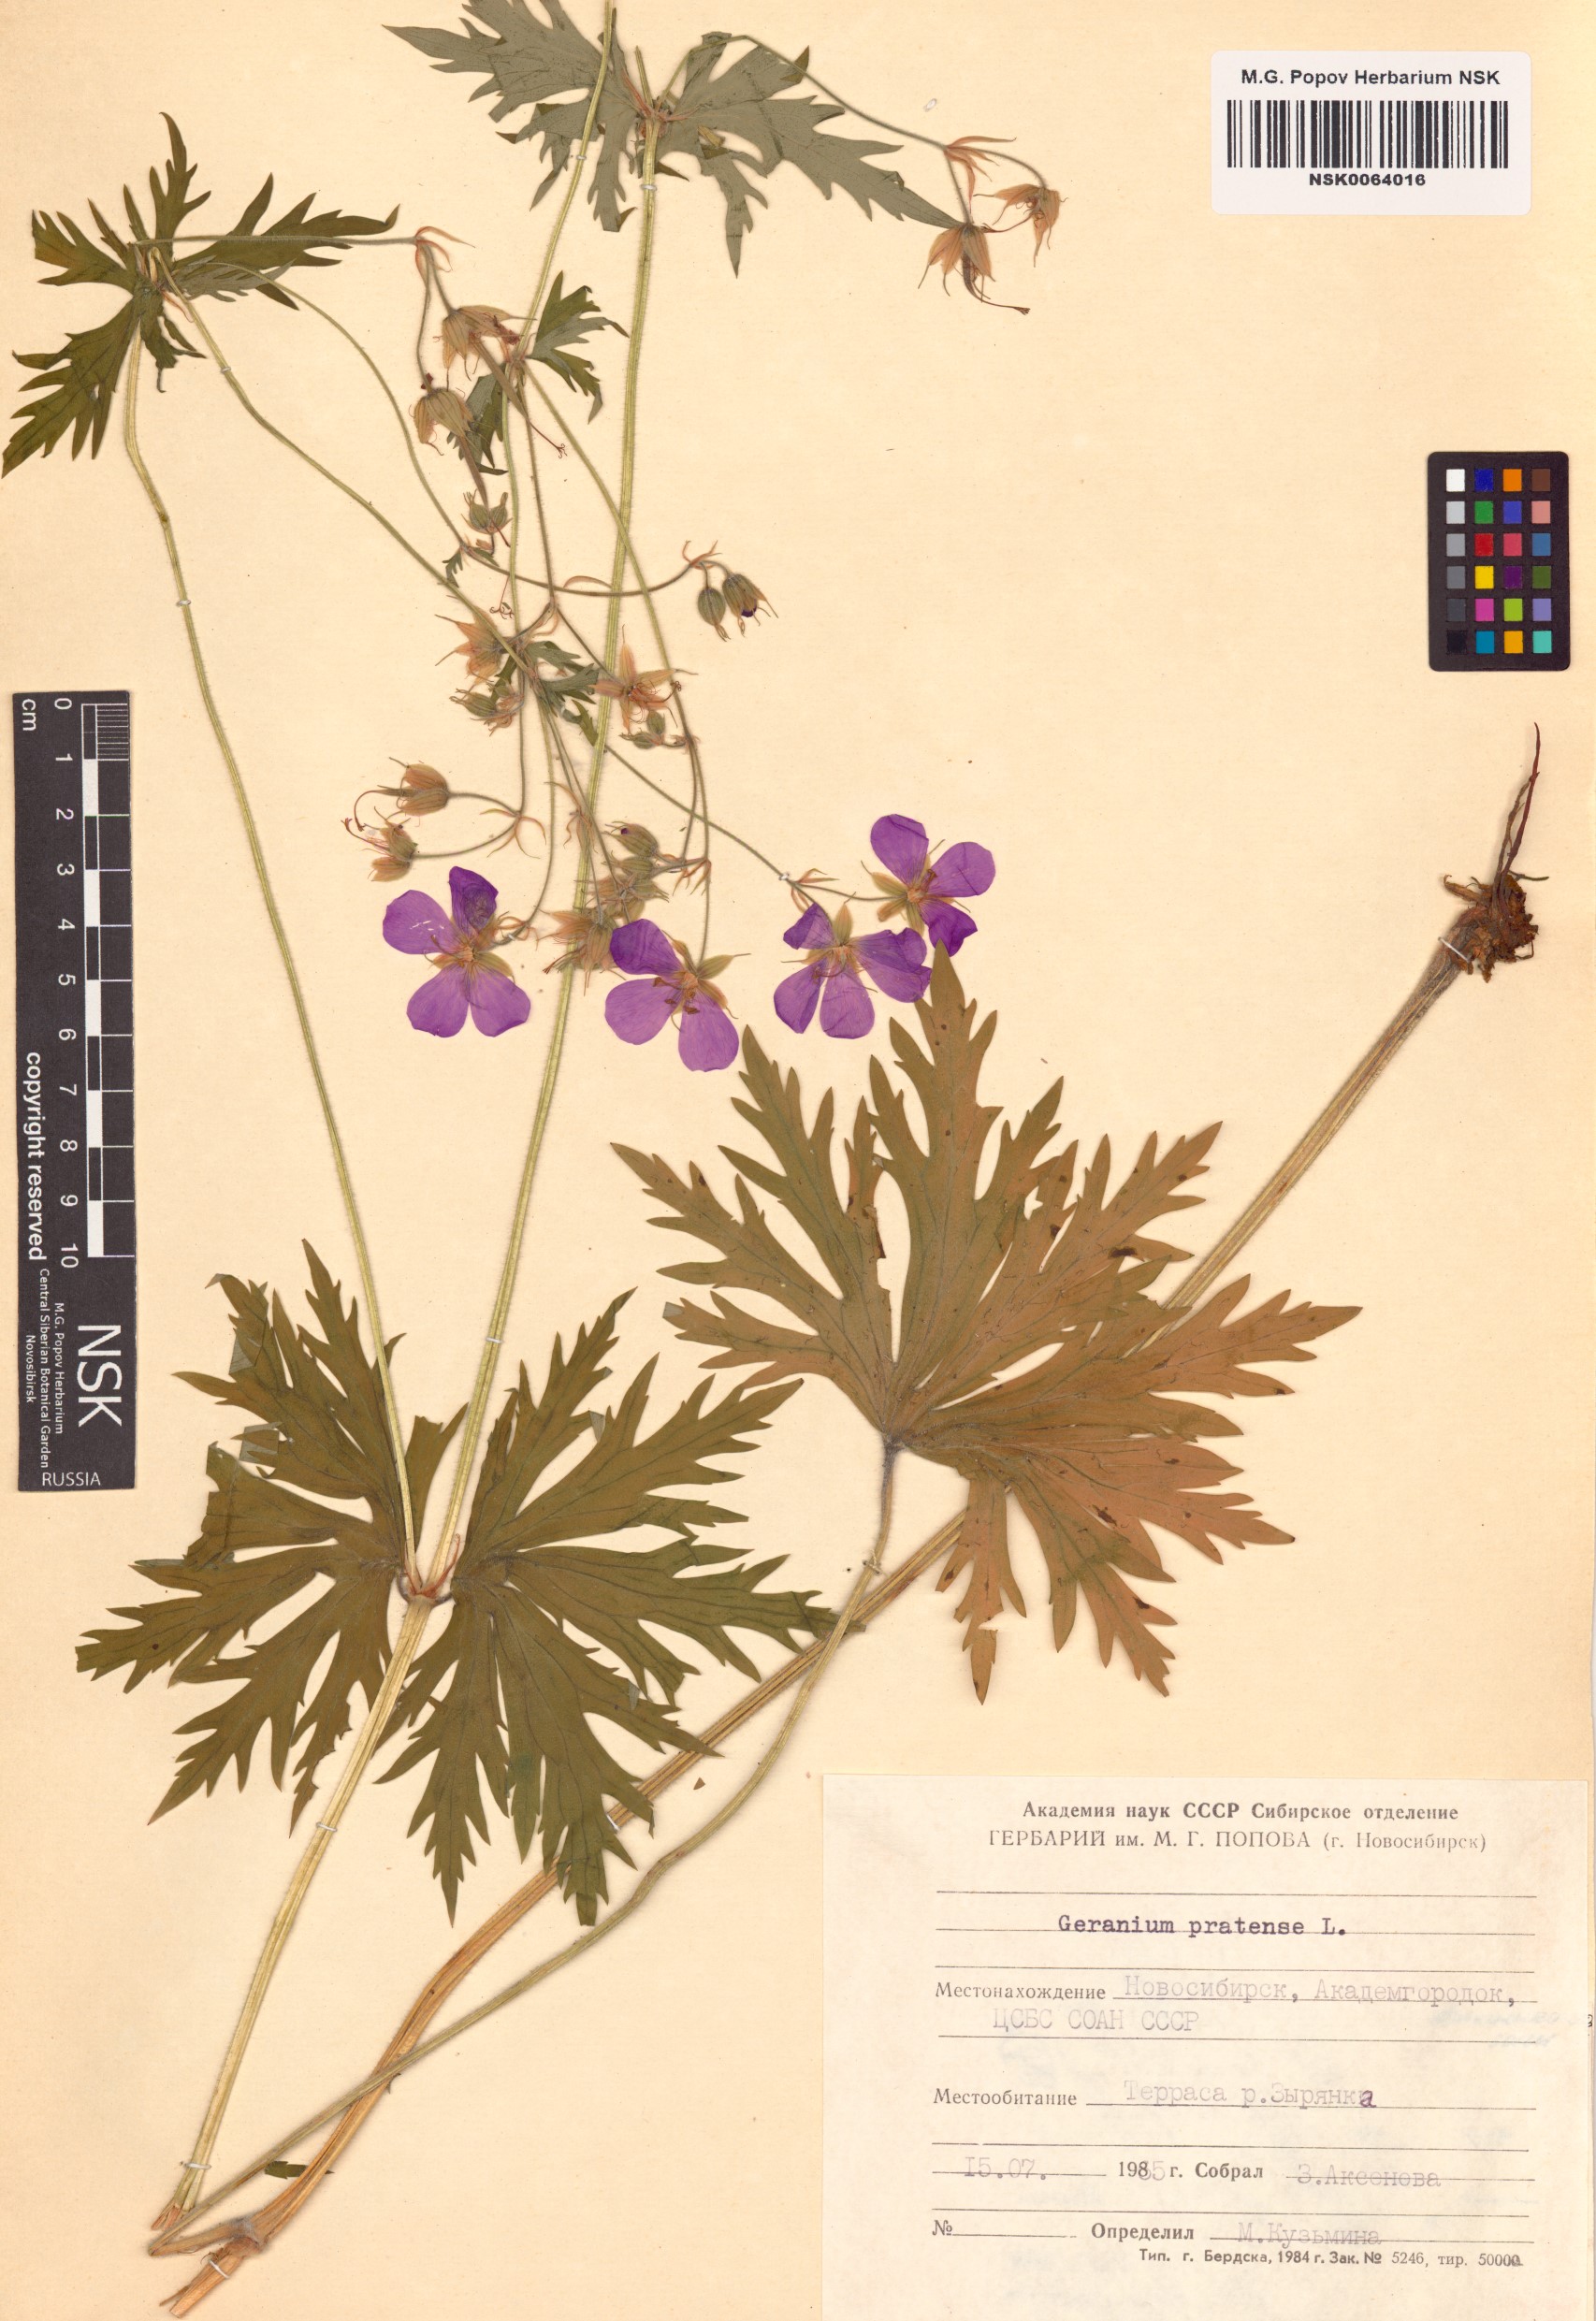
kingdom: Plantae
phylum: Tracheophyta
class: Magnoliopsida
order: Geraniales
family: Geraniaceae
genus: Geranium
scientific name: Geranium pratense
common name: Meadow crane's-bill
